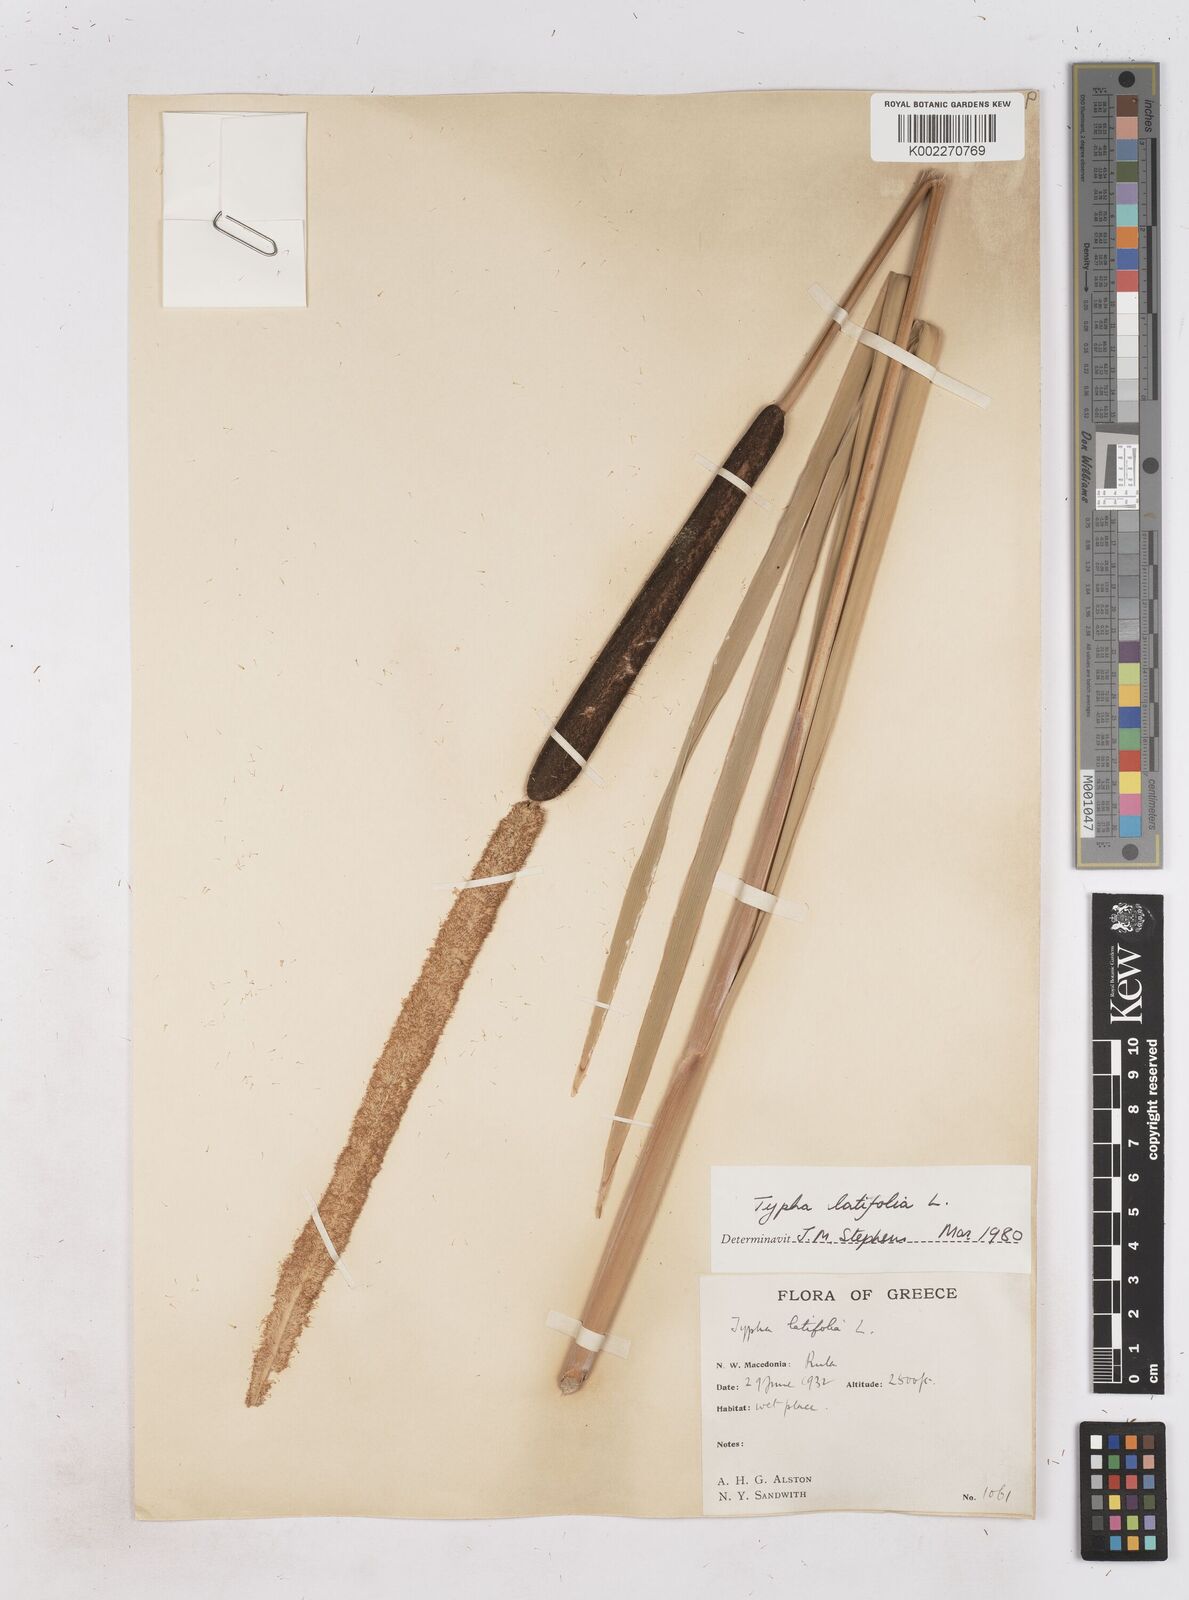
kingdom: Plantae
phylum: Tracheophyta
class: Liliopsida
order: Poales
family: Typhaceae
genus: Typha
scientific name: Typha latifolia
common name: Broadleaf cattail
